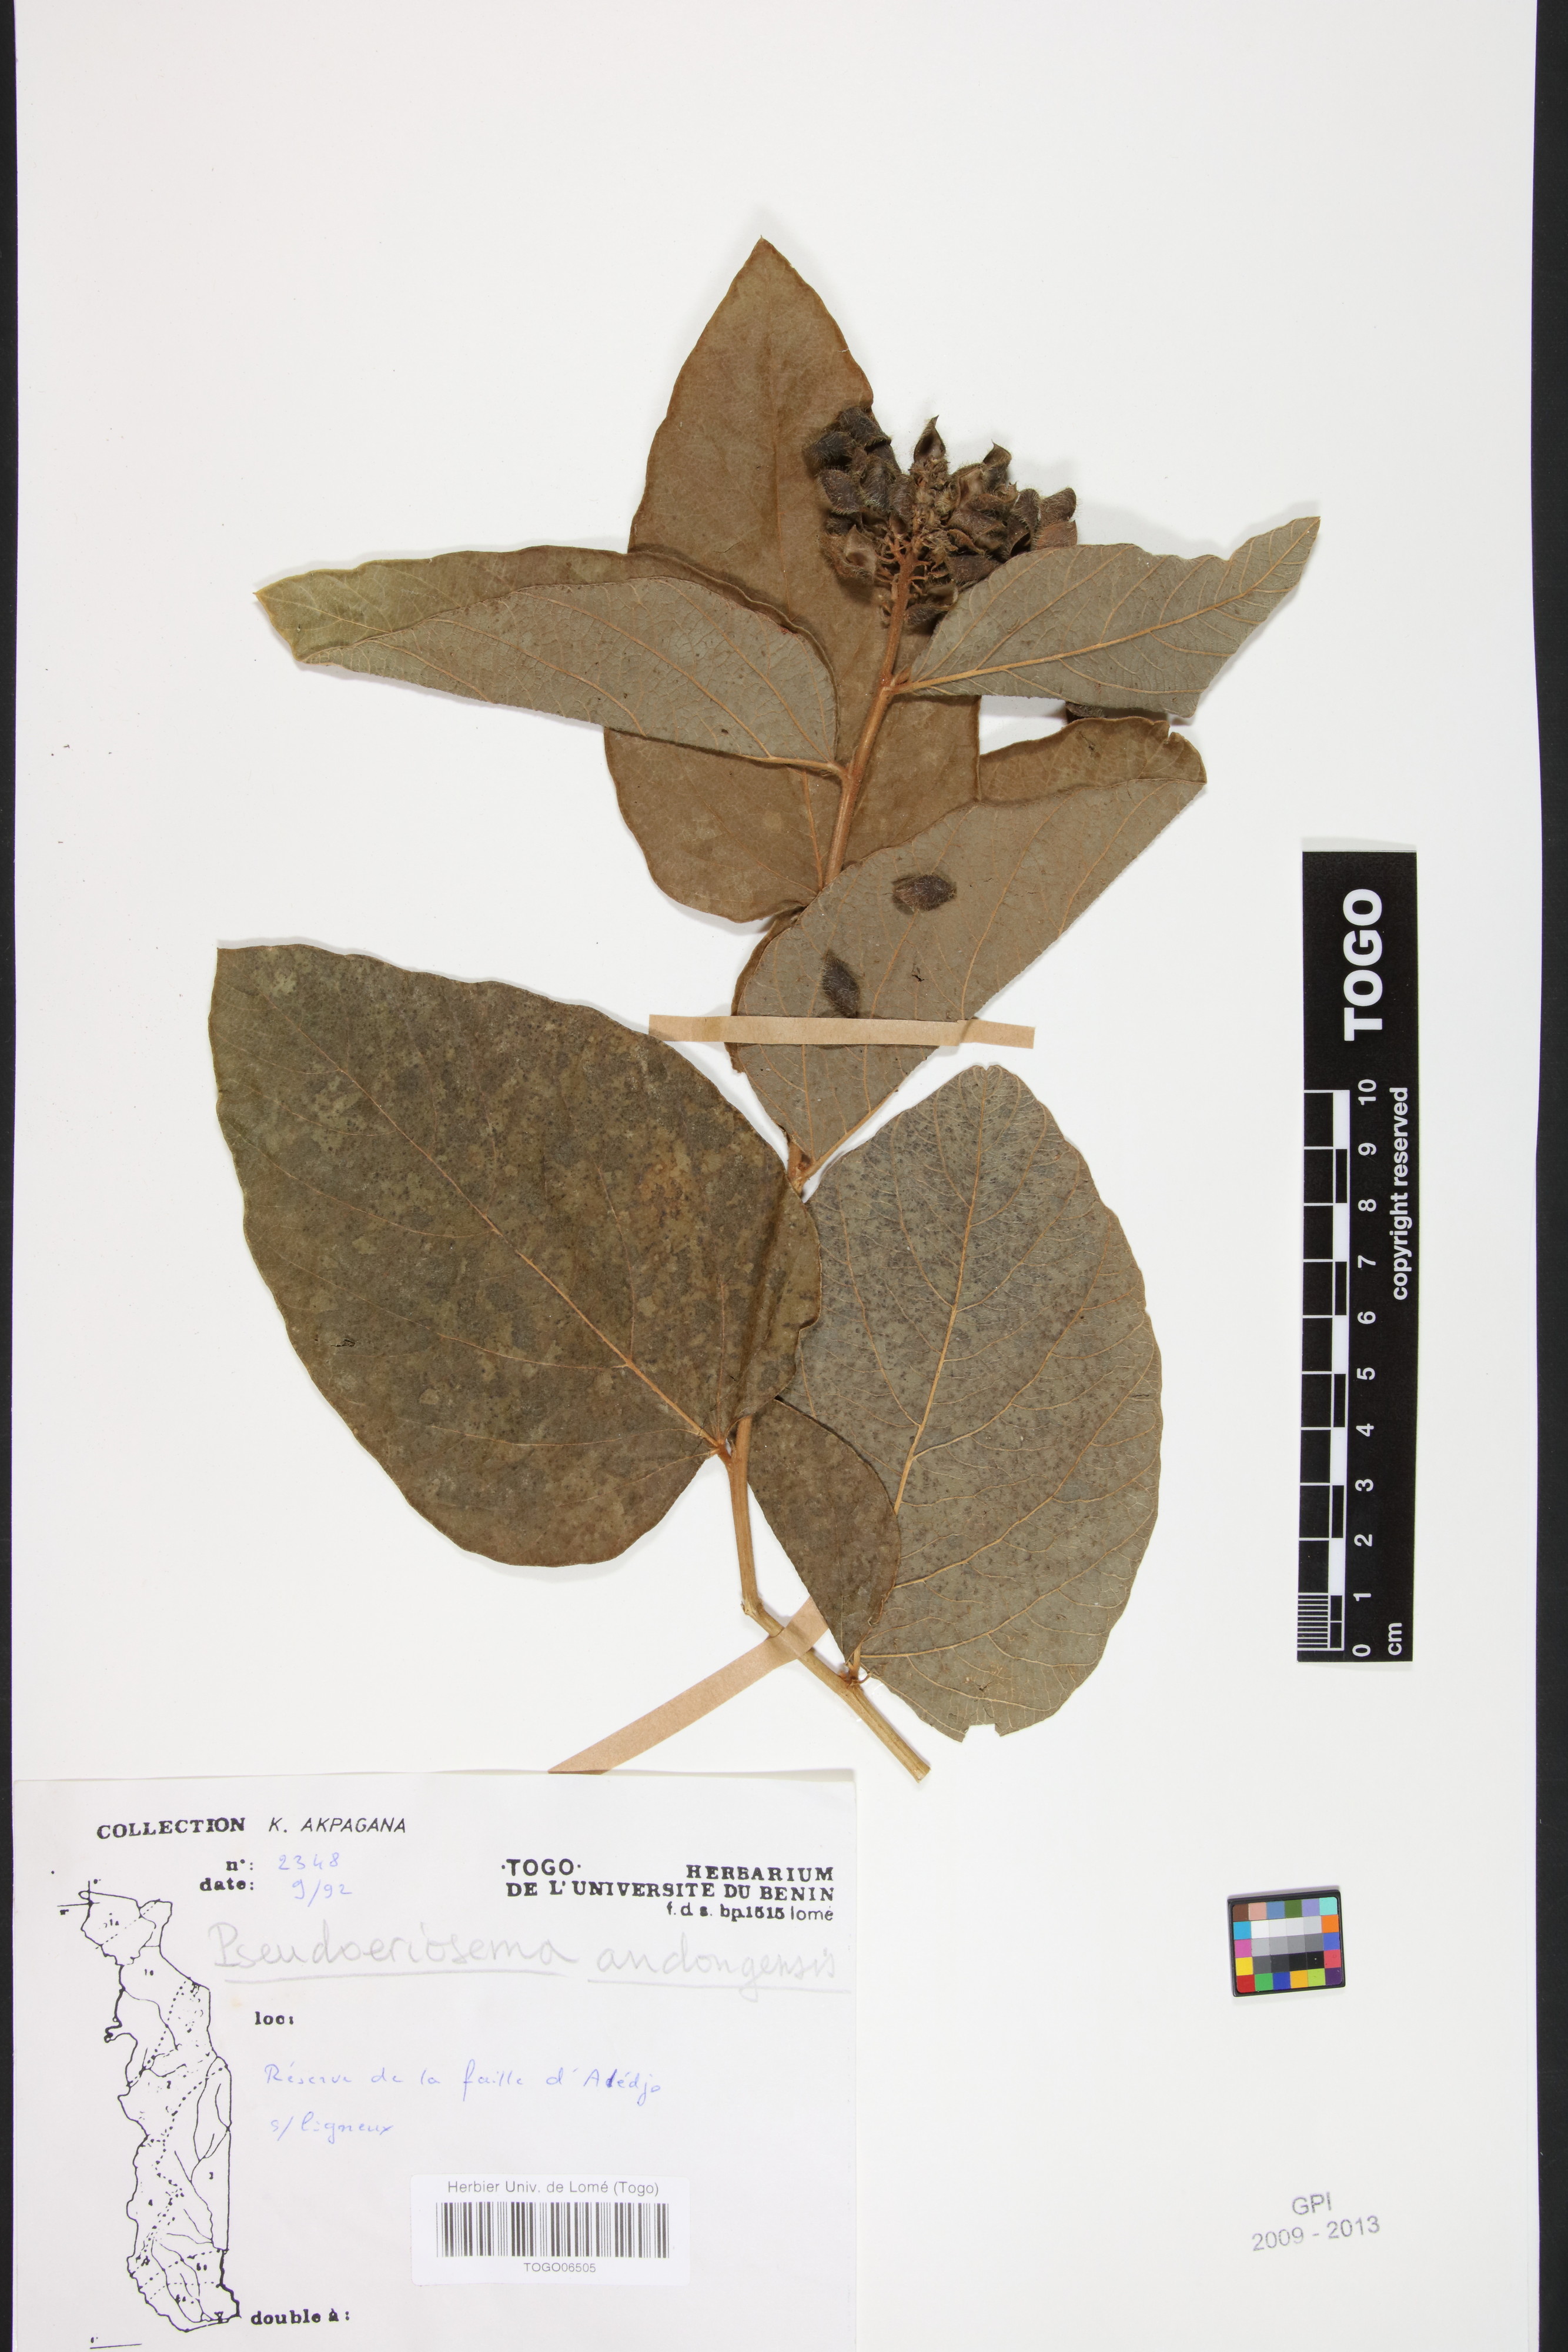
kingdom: Plantae
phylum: Tracheophyta
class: Magnoliopsida
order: Fabales
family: Fabaceae
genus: Pseudoeriosema
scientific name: Pseudoeriosema andongense
